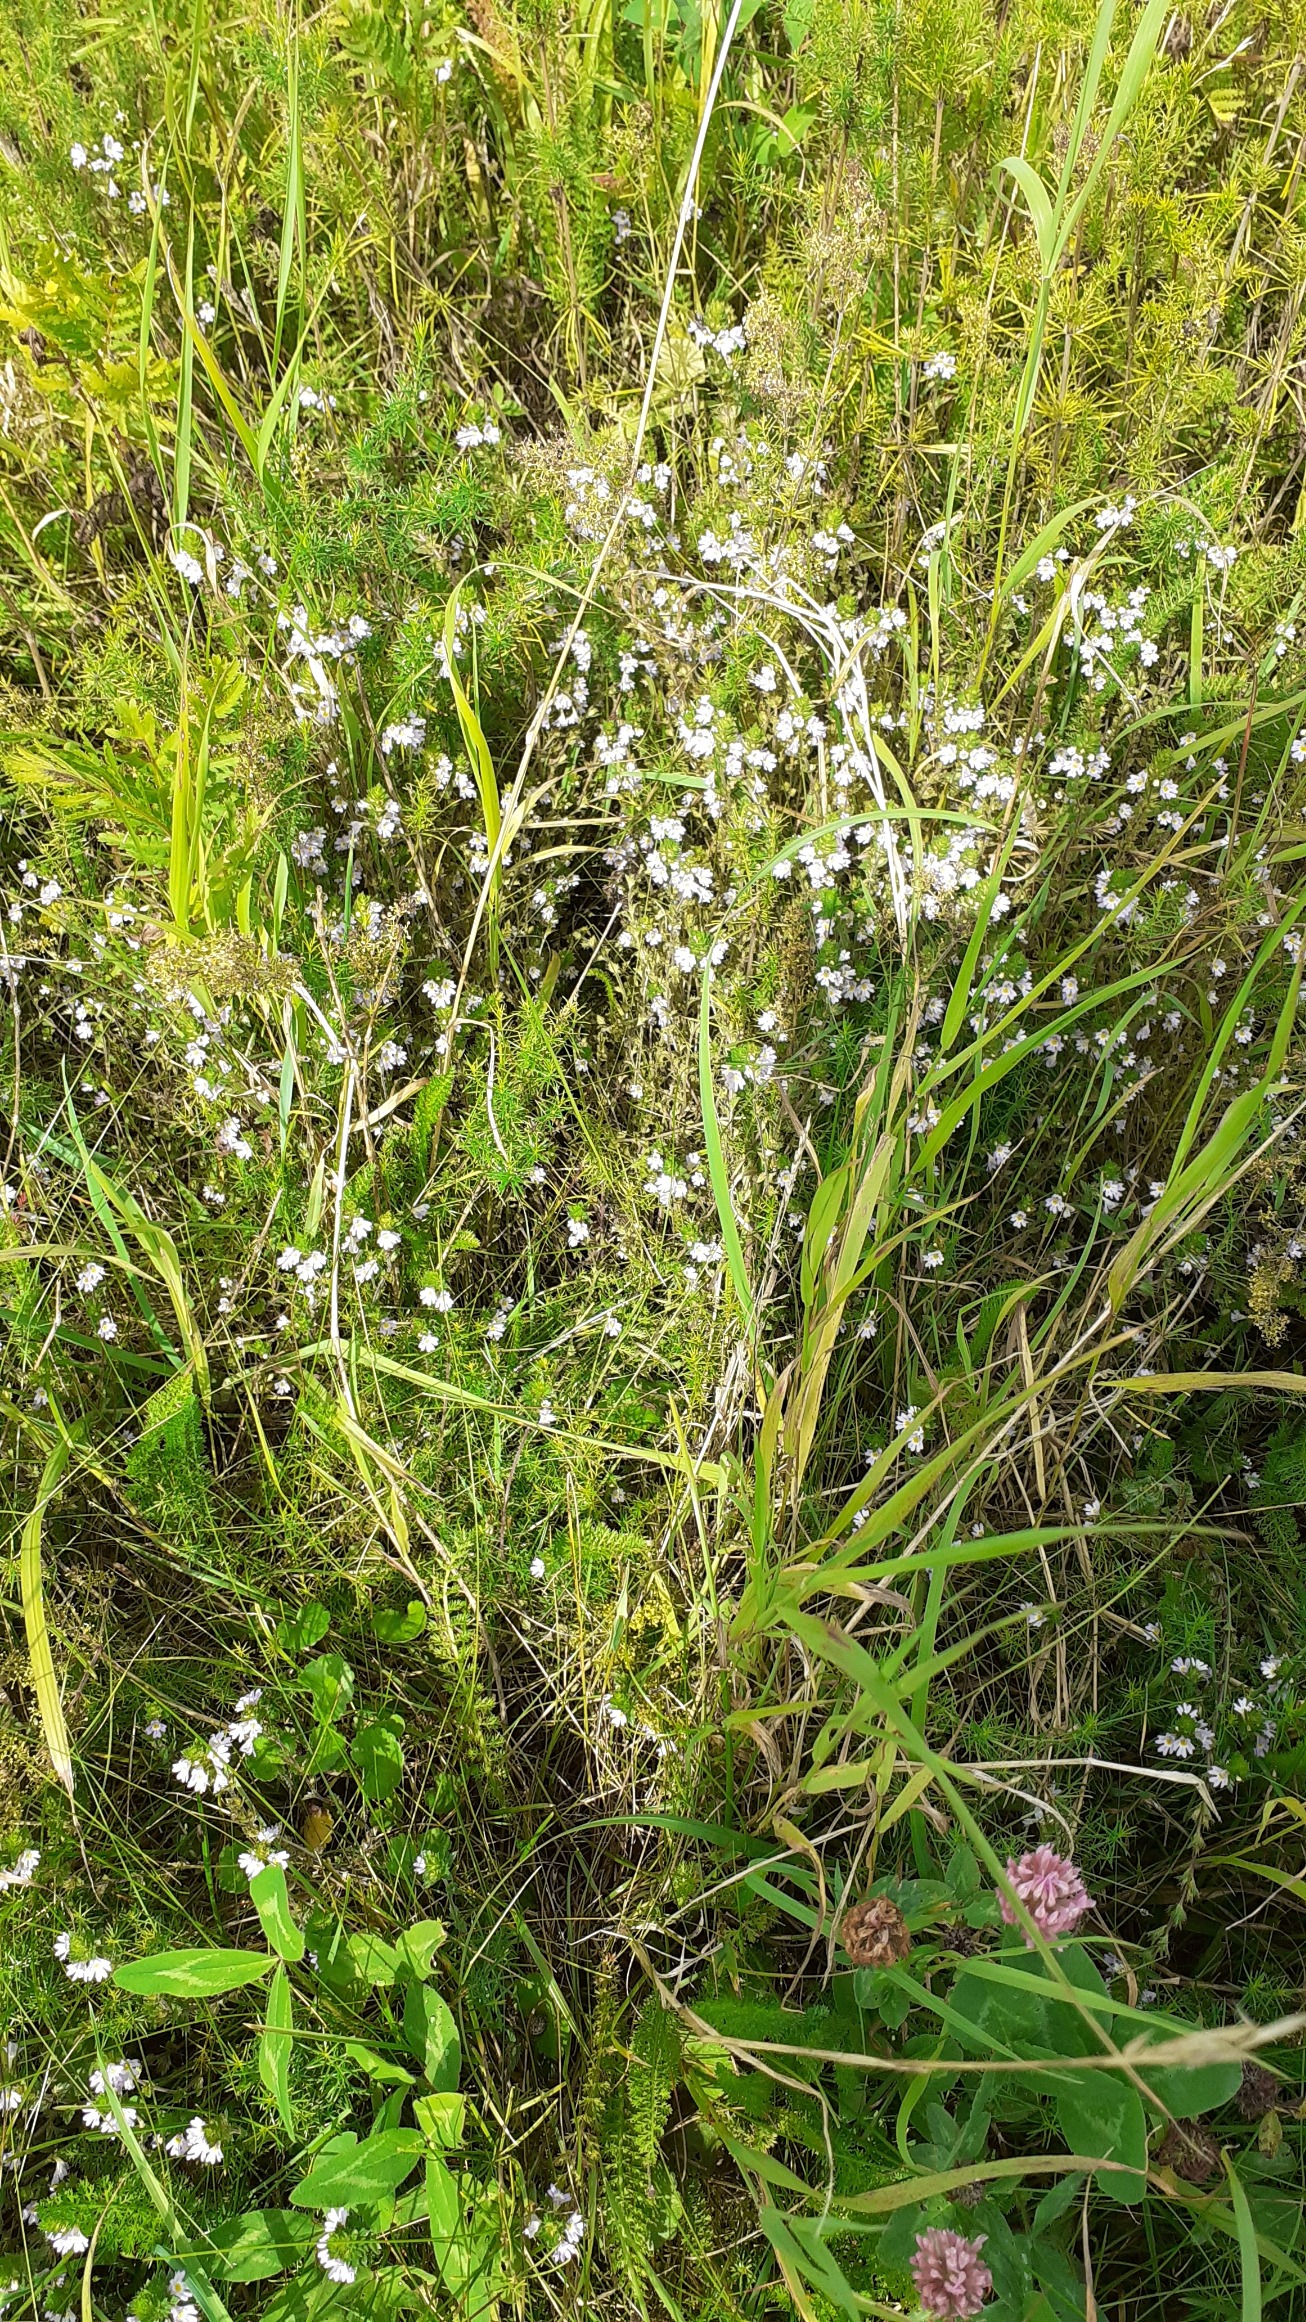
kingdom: Plantae
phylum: Tracheophyta
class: Magnoliopsida
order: Lamiales
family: Orobanchaceae
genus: Euphrasia
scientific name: Euphrasia stricta
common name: Spids øjentrøst
